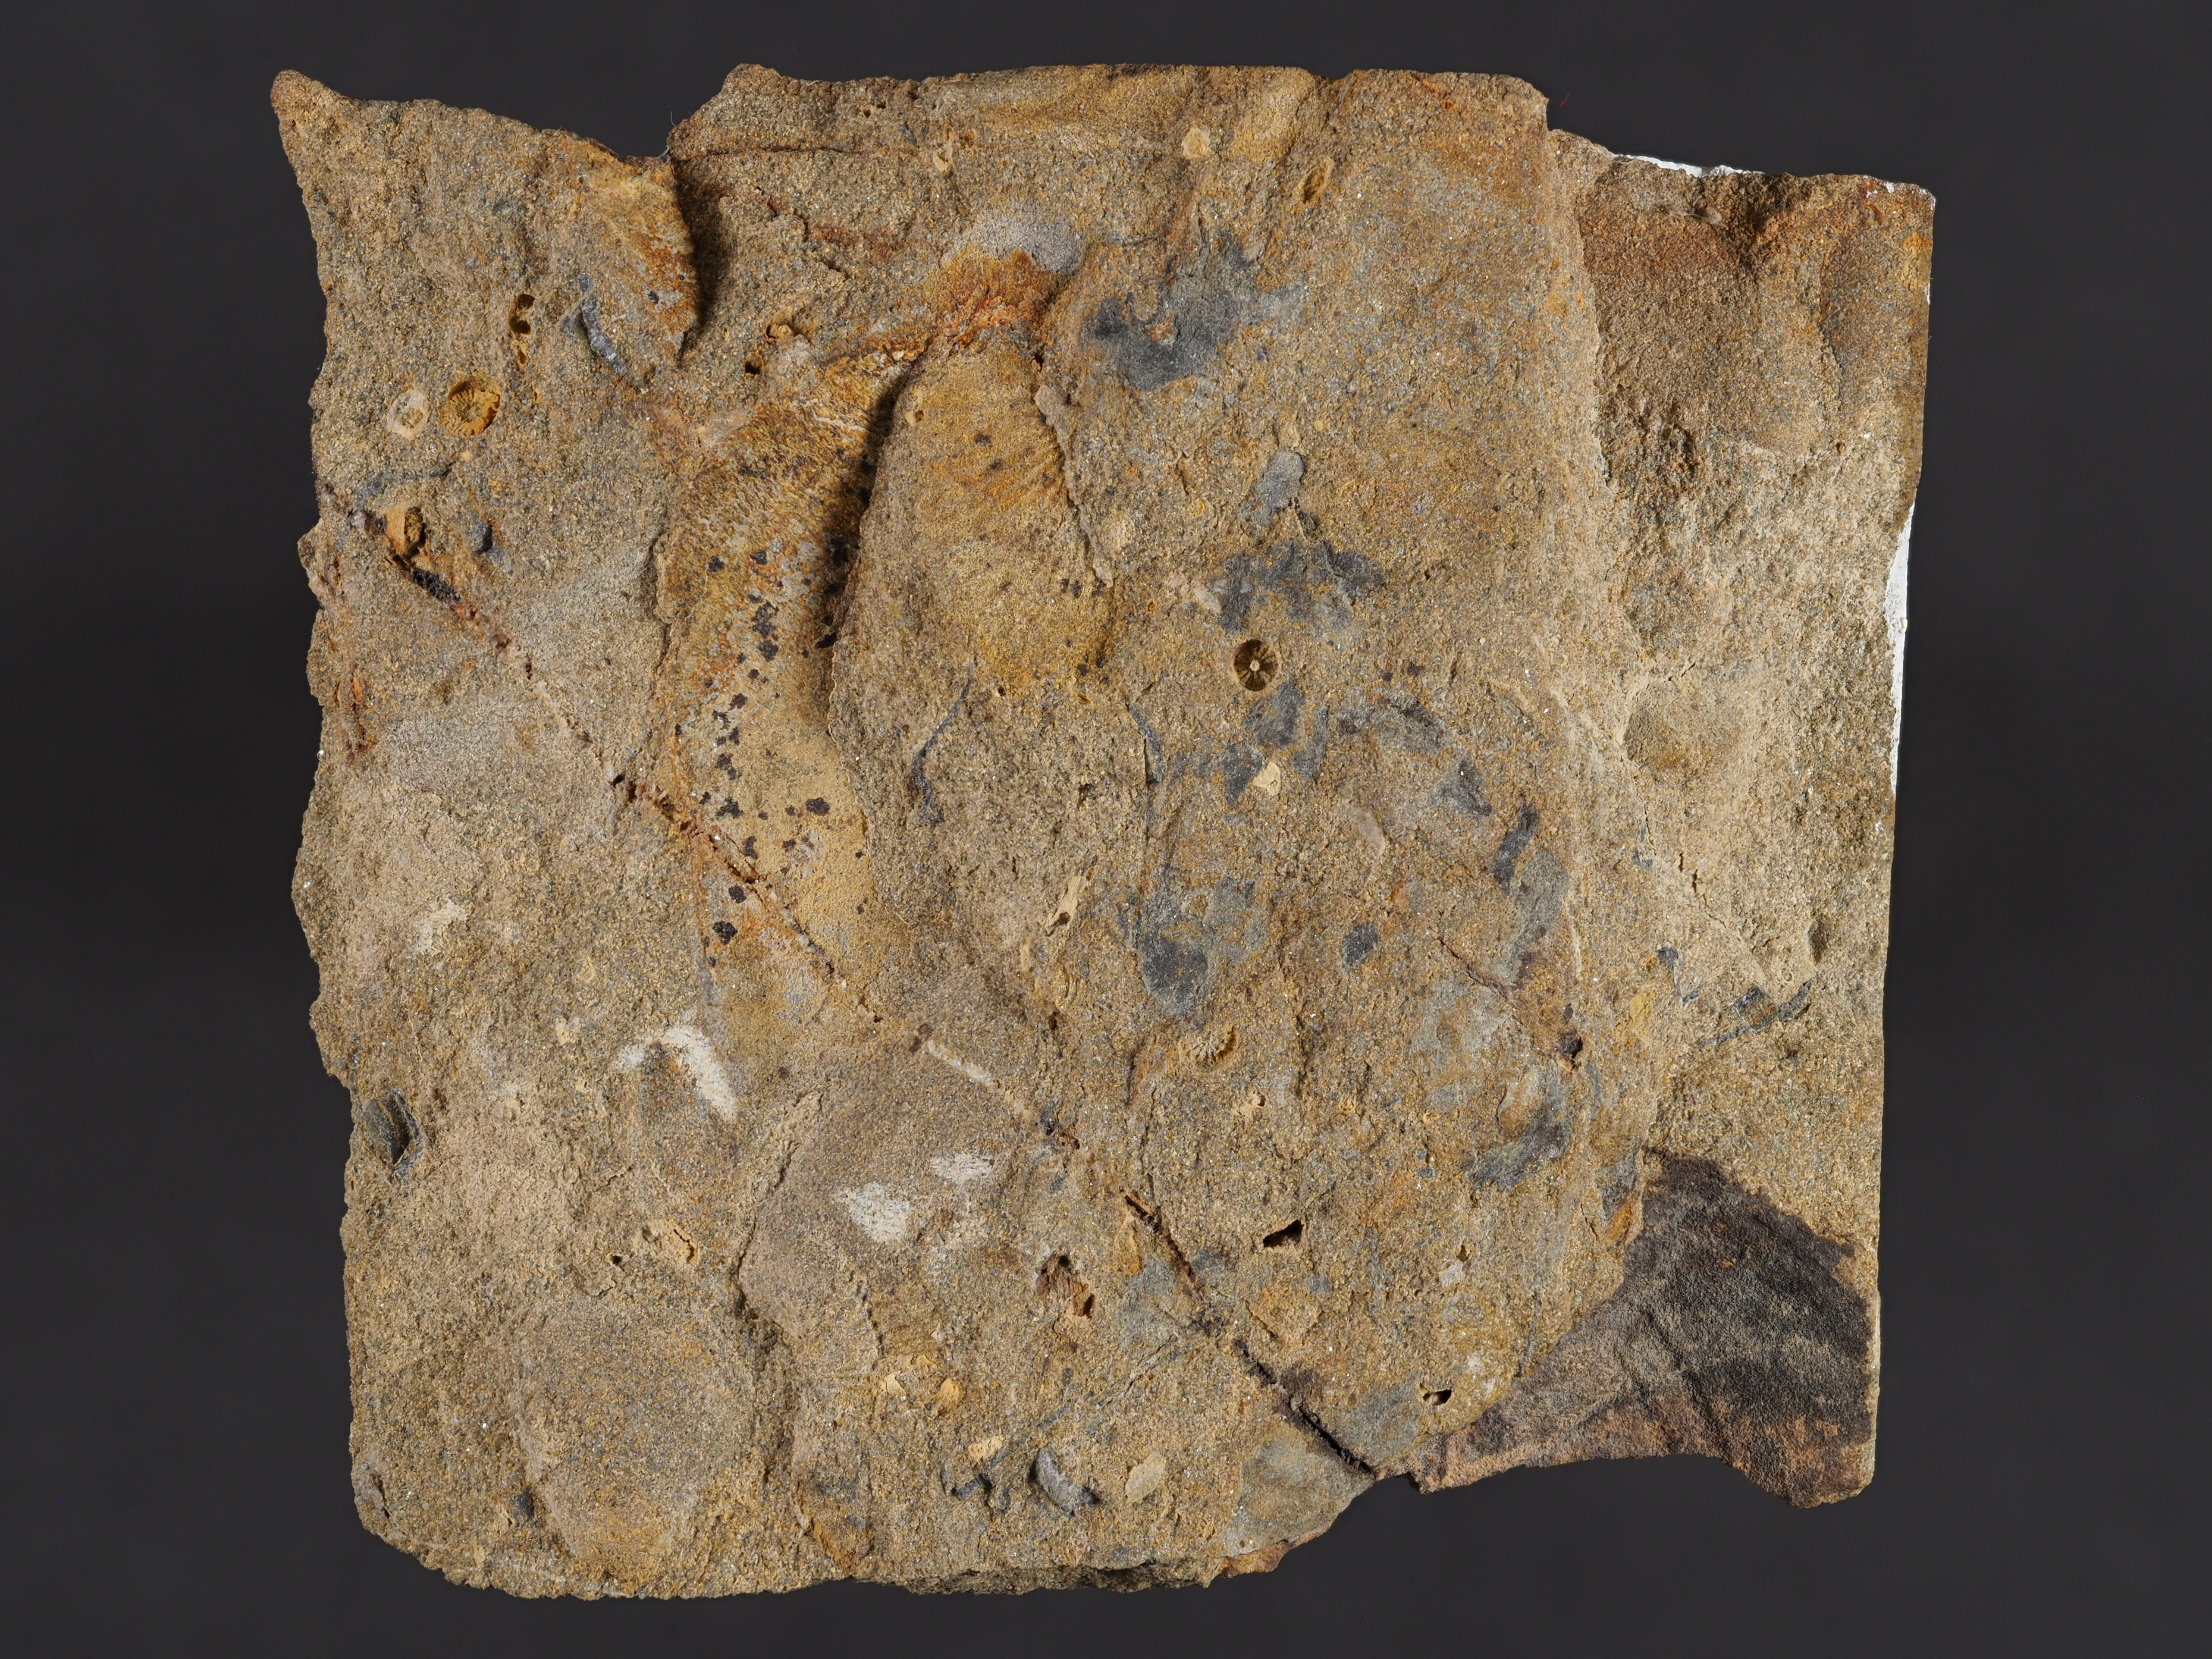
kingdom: Animalia
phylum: Mollusca
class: Bivalvia
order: Nuculanida
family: Malletiidae
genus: Palaeoneilo
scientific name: Palaeoneilo
